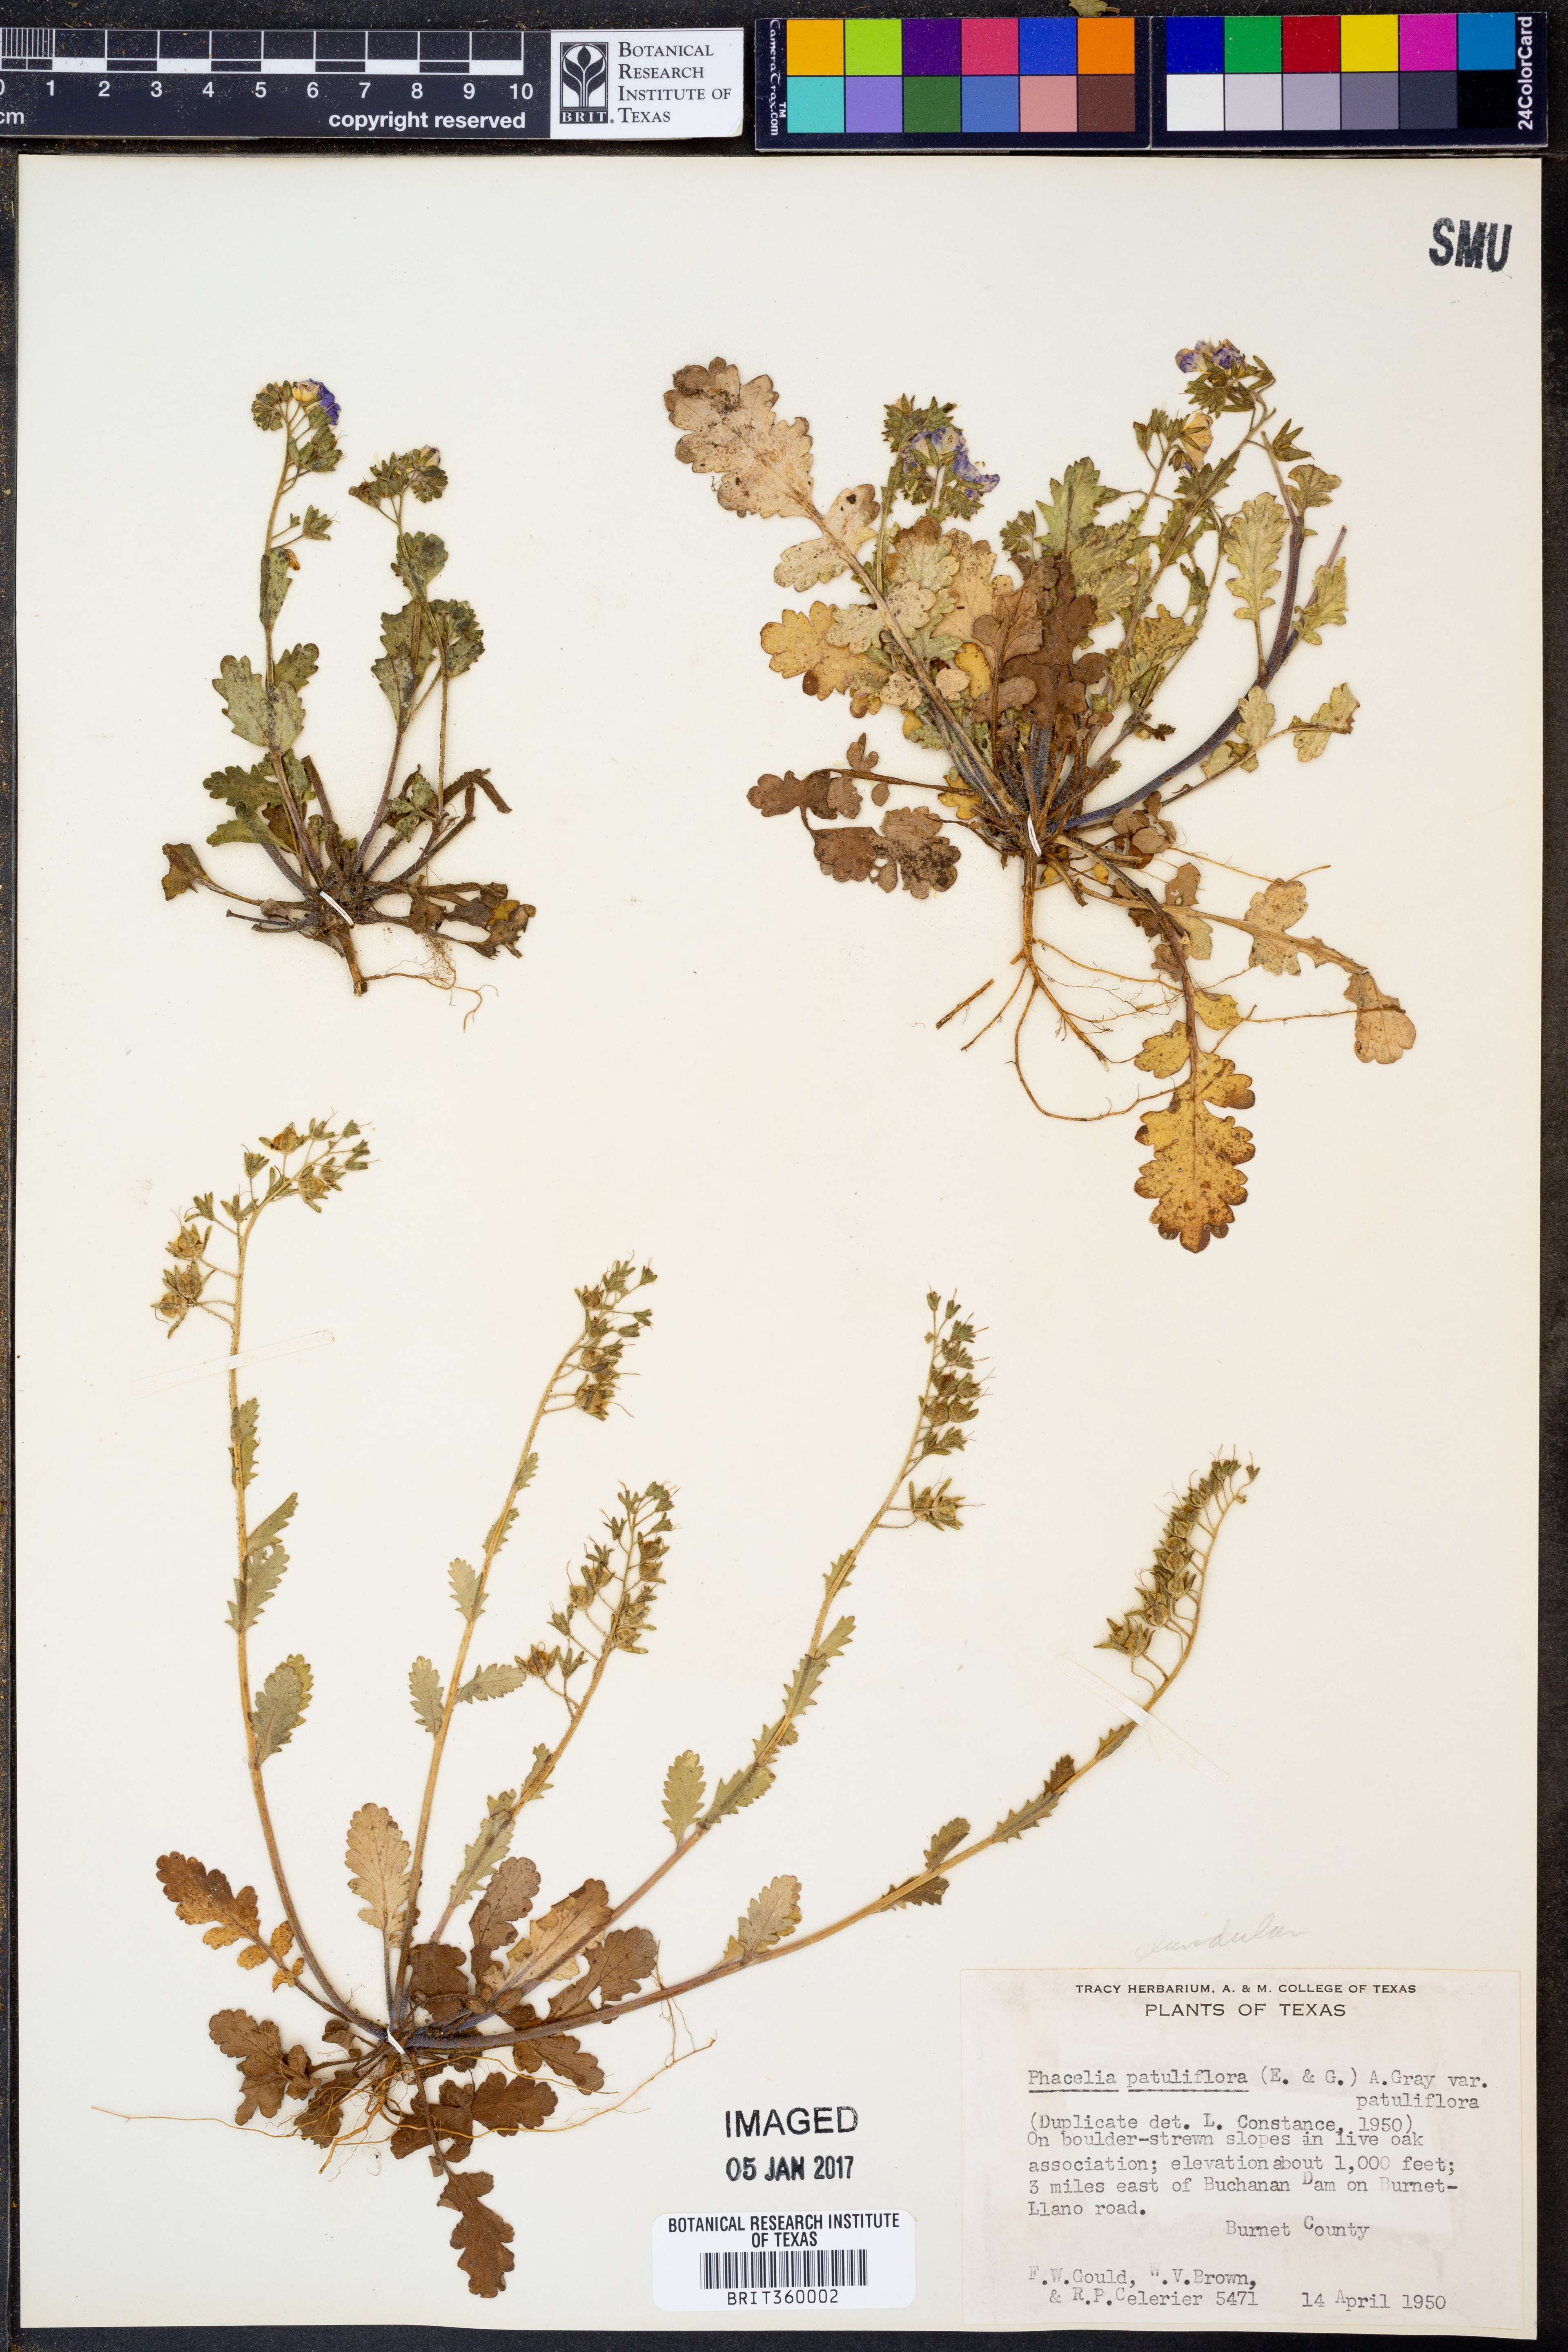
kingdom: Plantae
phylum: Tracheophyta
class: Magnoliopsida
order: Boraginales
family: Hydrophyllaceae
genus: Phacelia
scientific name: Phacelia patuliflora
